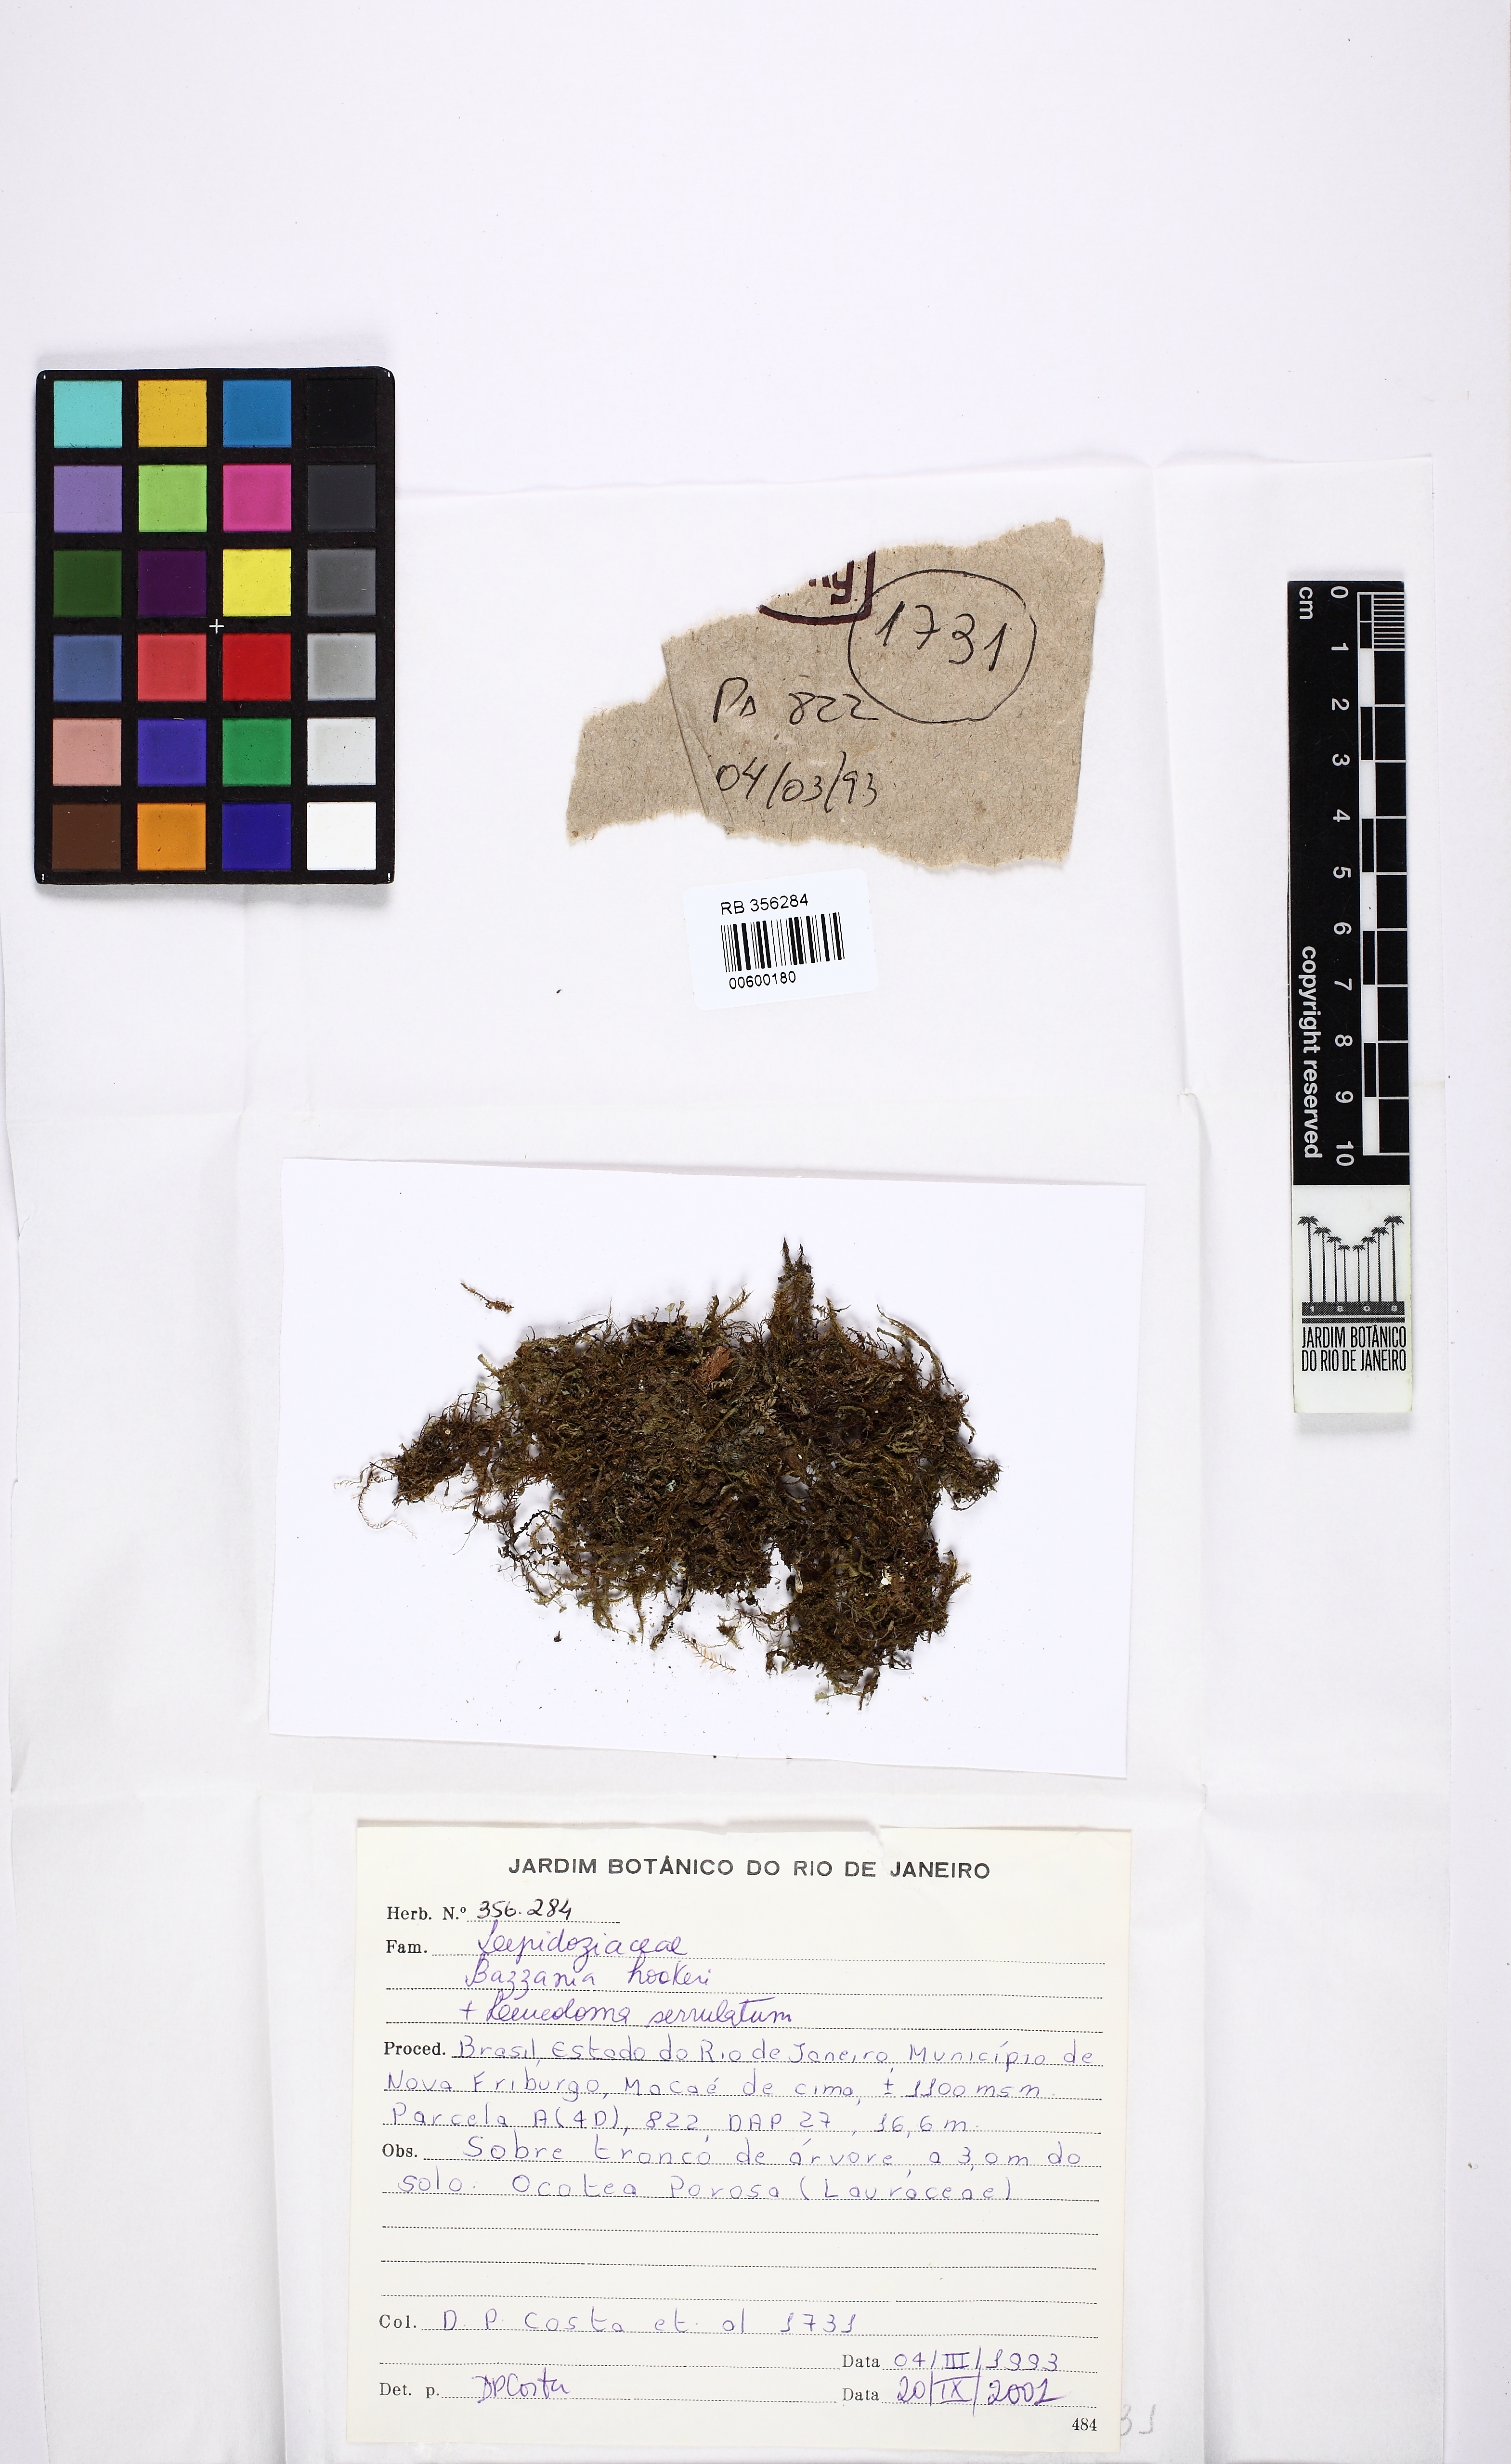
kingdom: Plantae
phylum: Marchantiophyta
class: Jungermanniopsida
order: Jungermanniales
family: Lepidoziaceae
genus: Bazzania
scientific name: Bazzania hookeri
